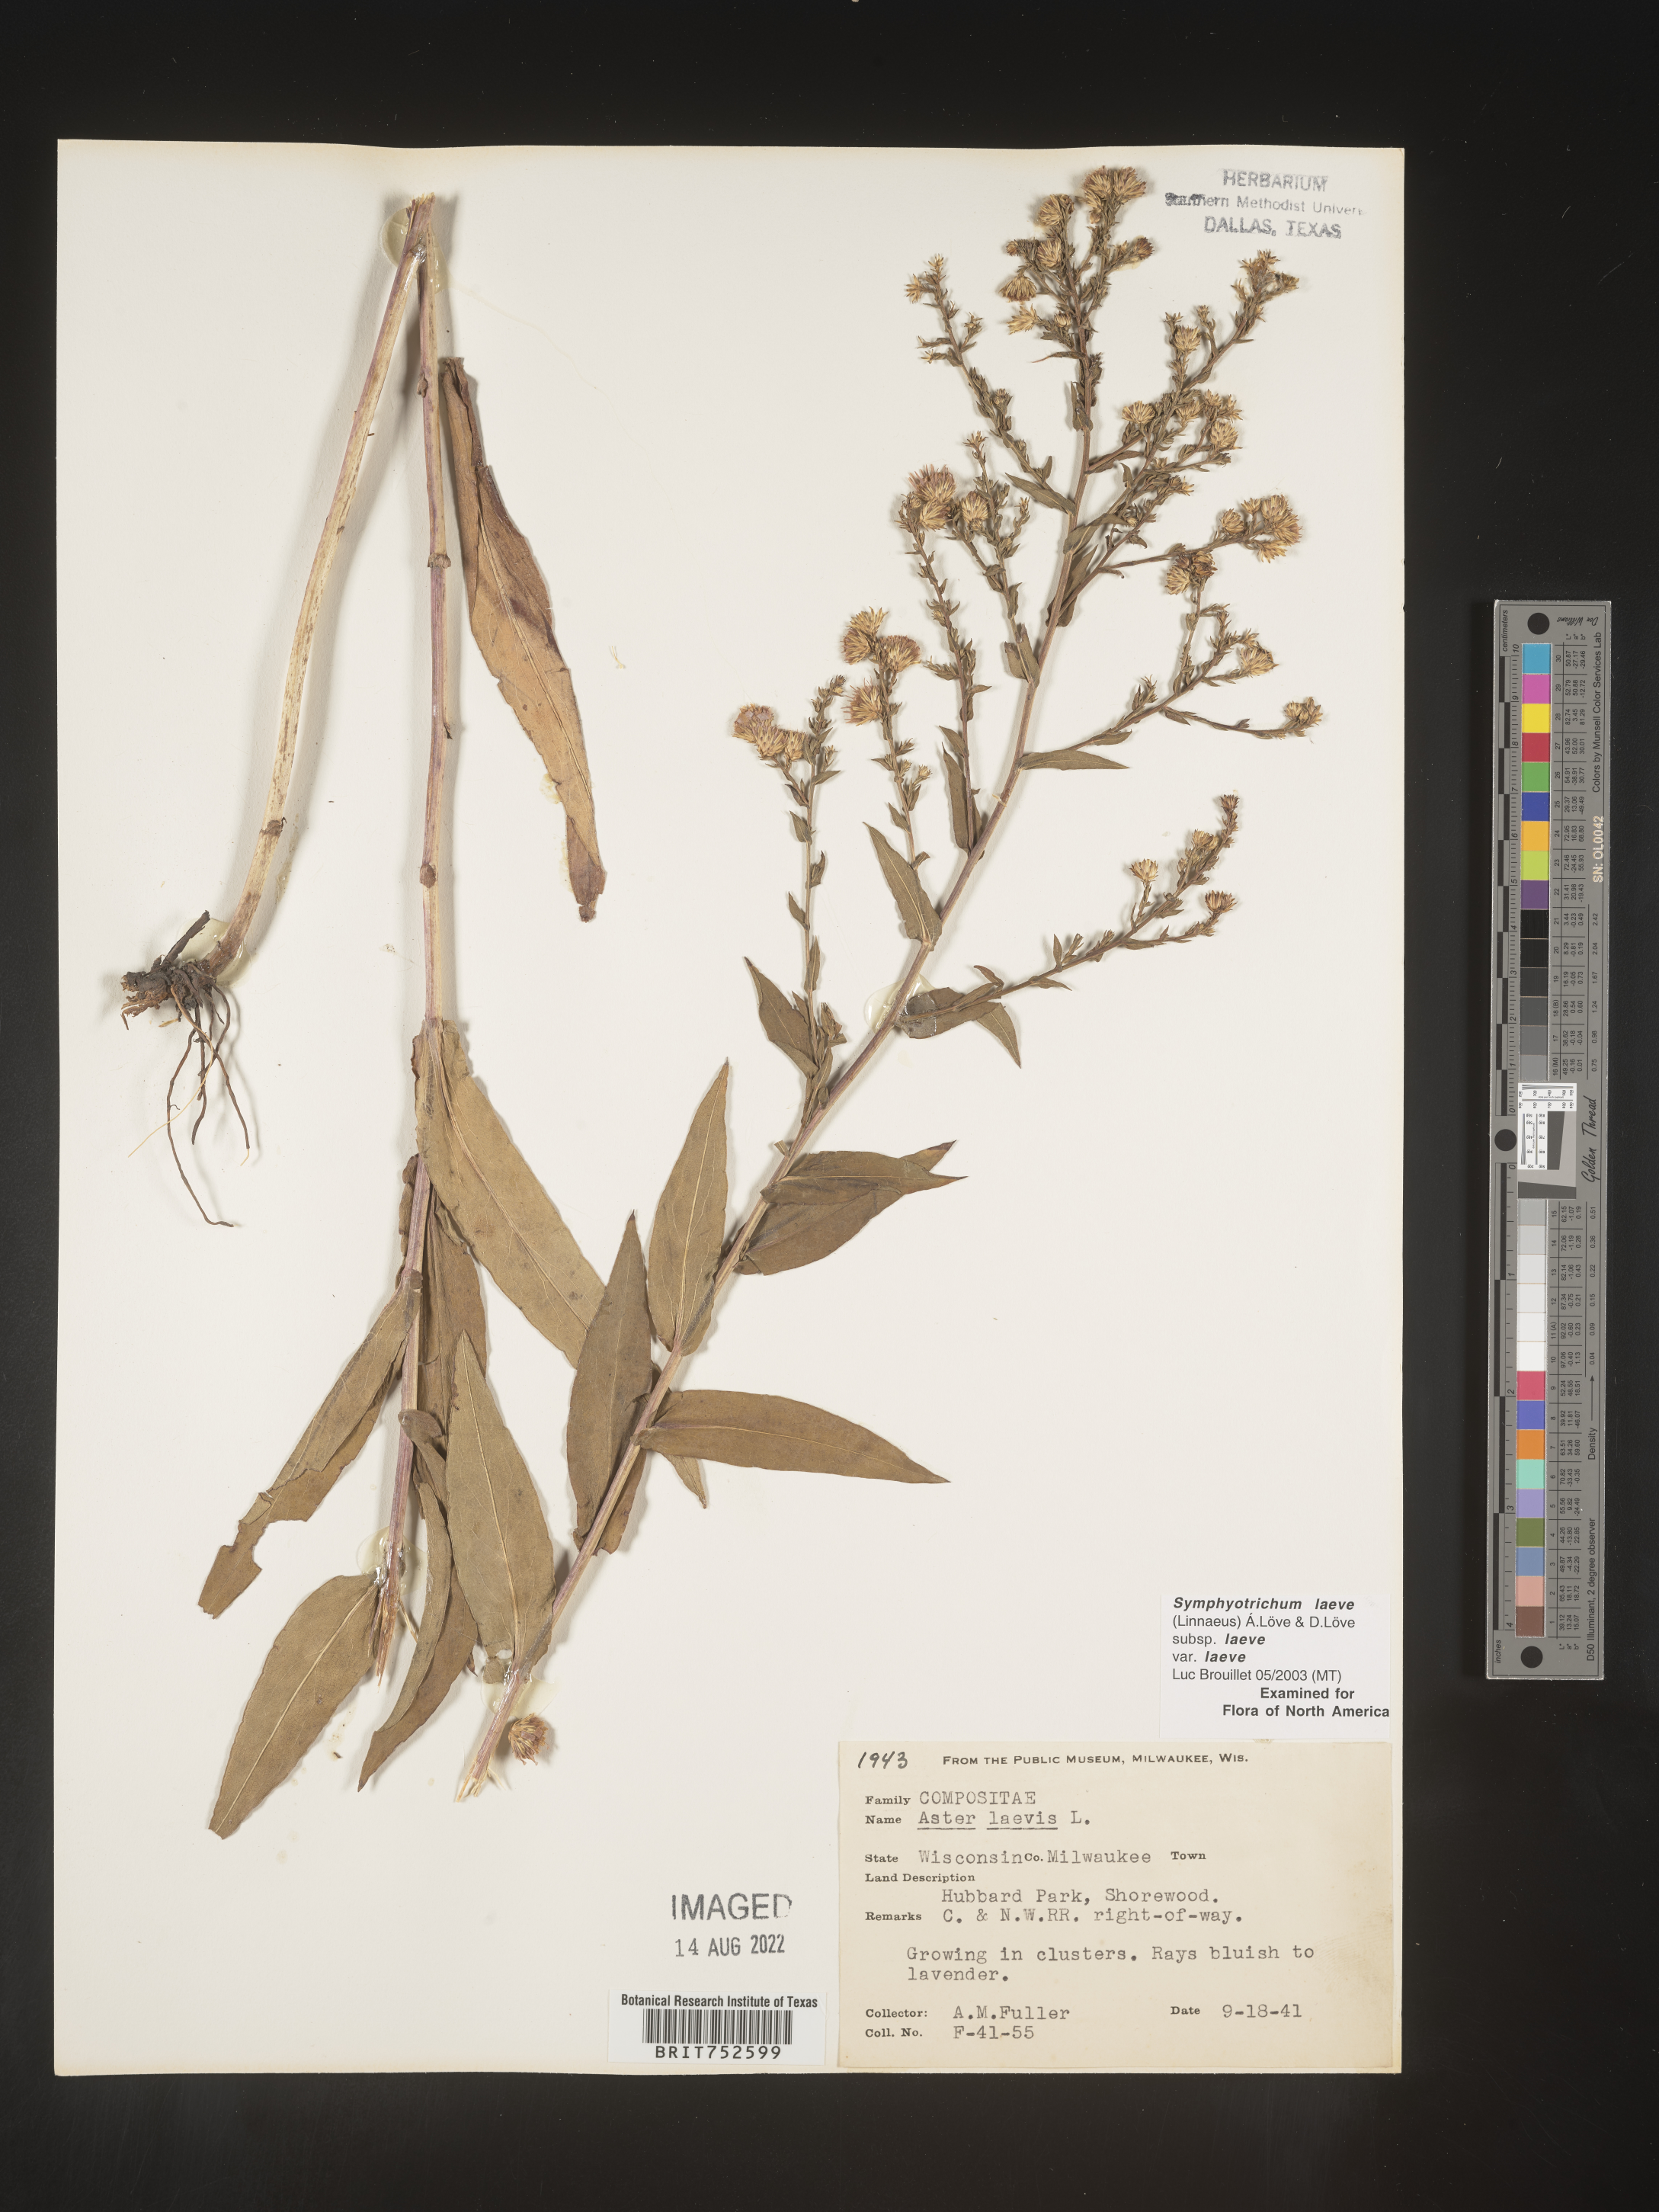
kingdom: Plantae
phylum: Tracheophyta
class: Magnoliopsida
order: Asterales
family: Asteraceae
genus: Symphyotrichum
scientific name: Symphyotrichum laeve
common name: Glaucous aster
